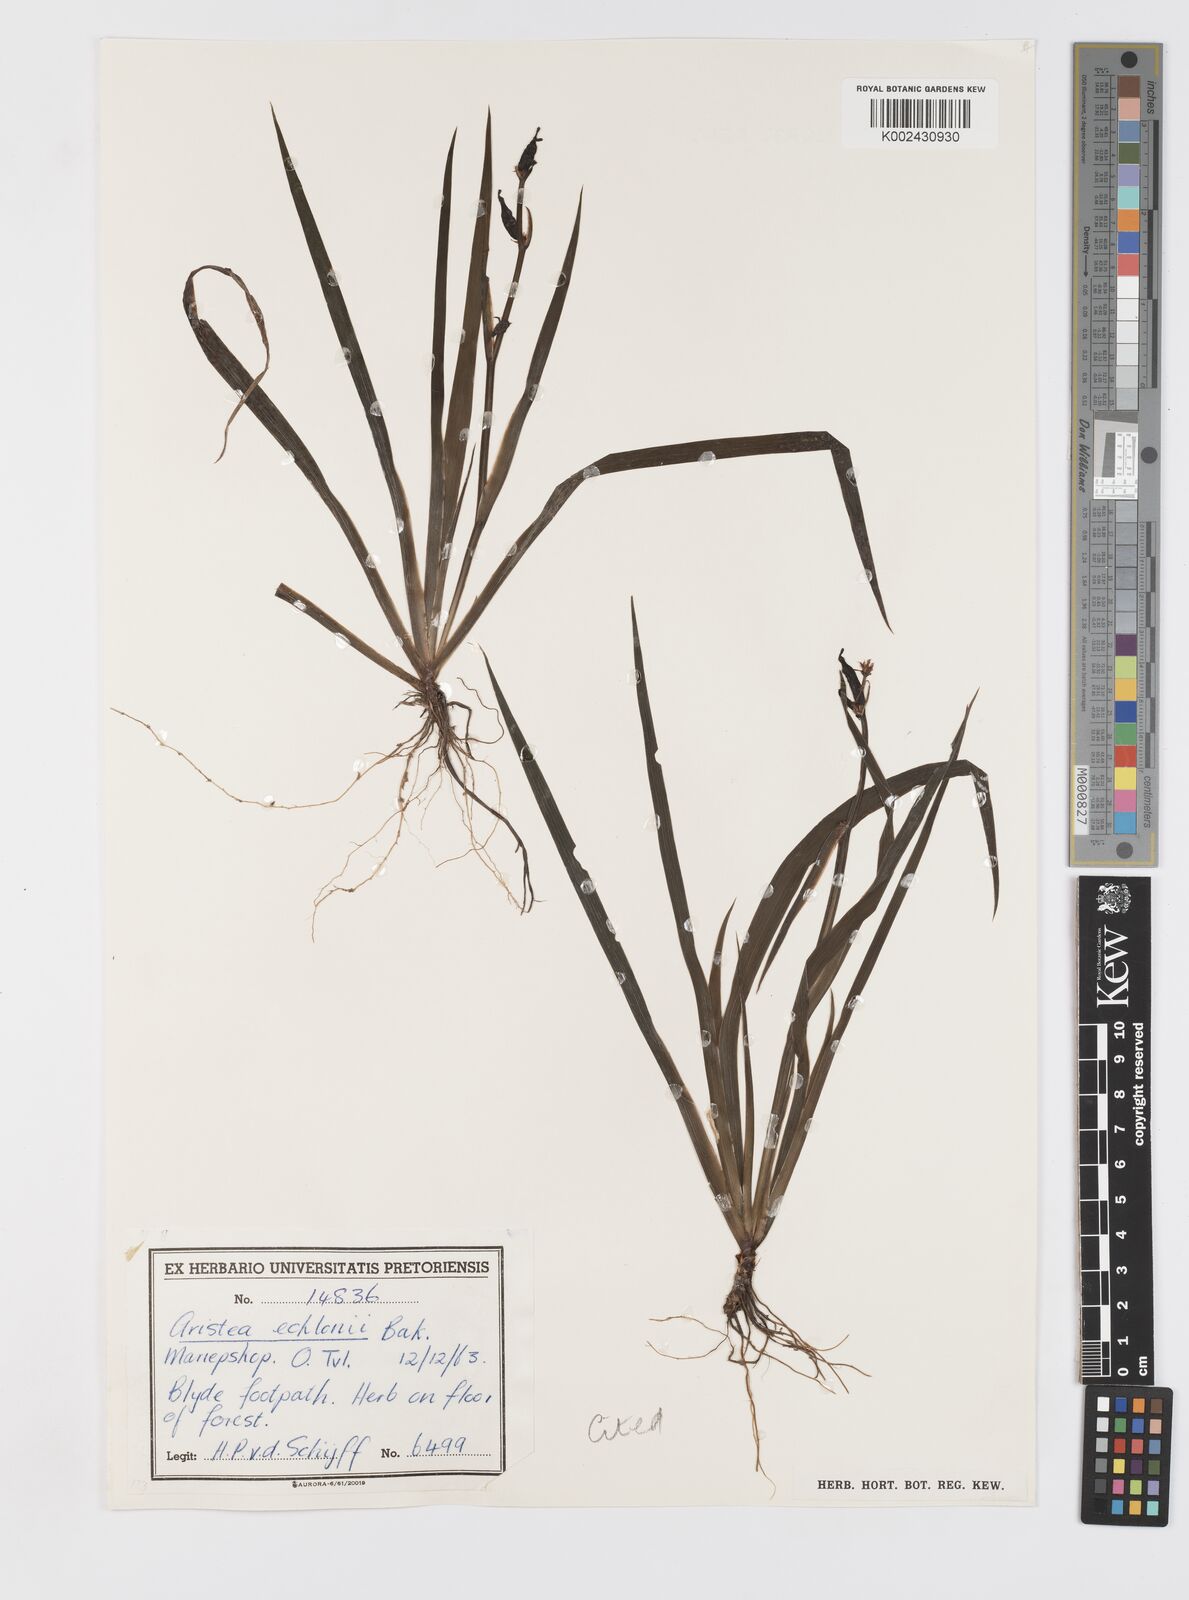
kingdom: Plantae
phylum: Tracheophyta
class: Liliopsida
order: Asparagales
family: Iridaceae
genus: Aristea
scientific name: Aristea ecklonii
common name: Blue corn-lily
